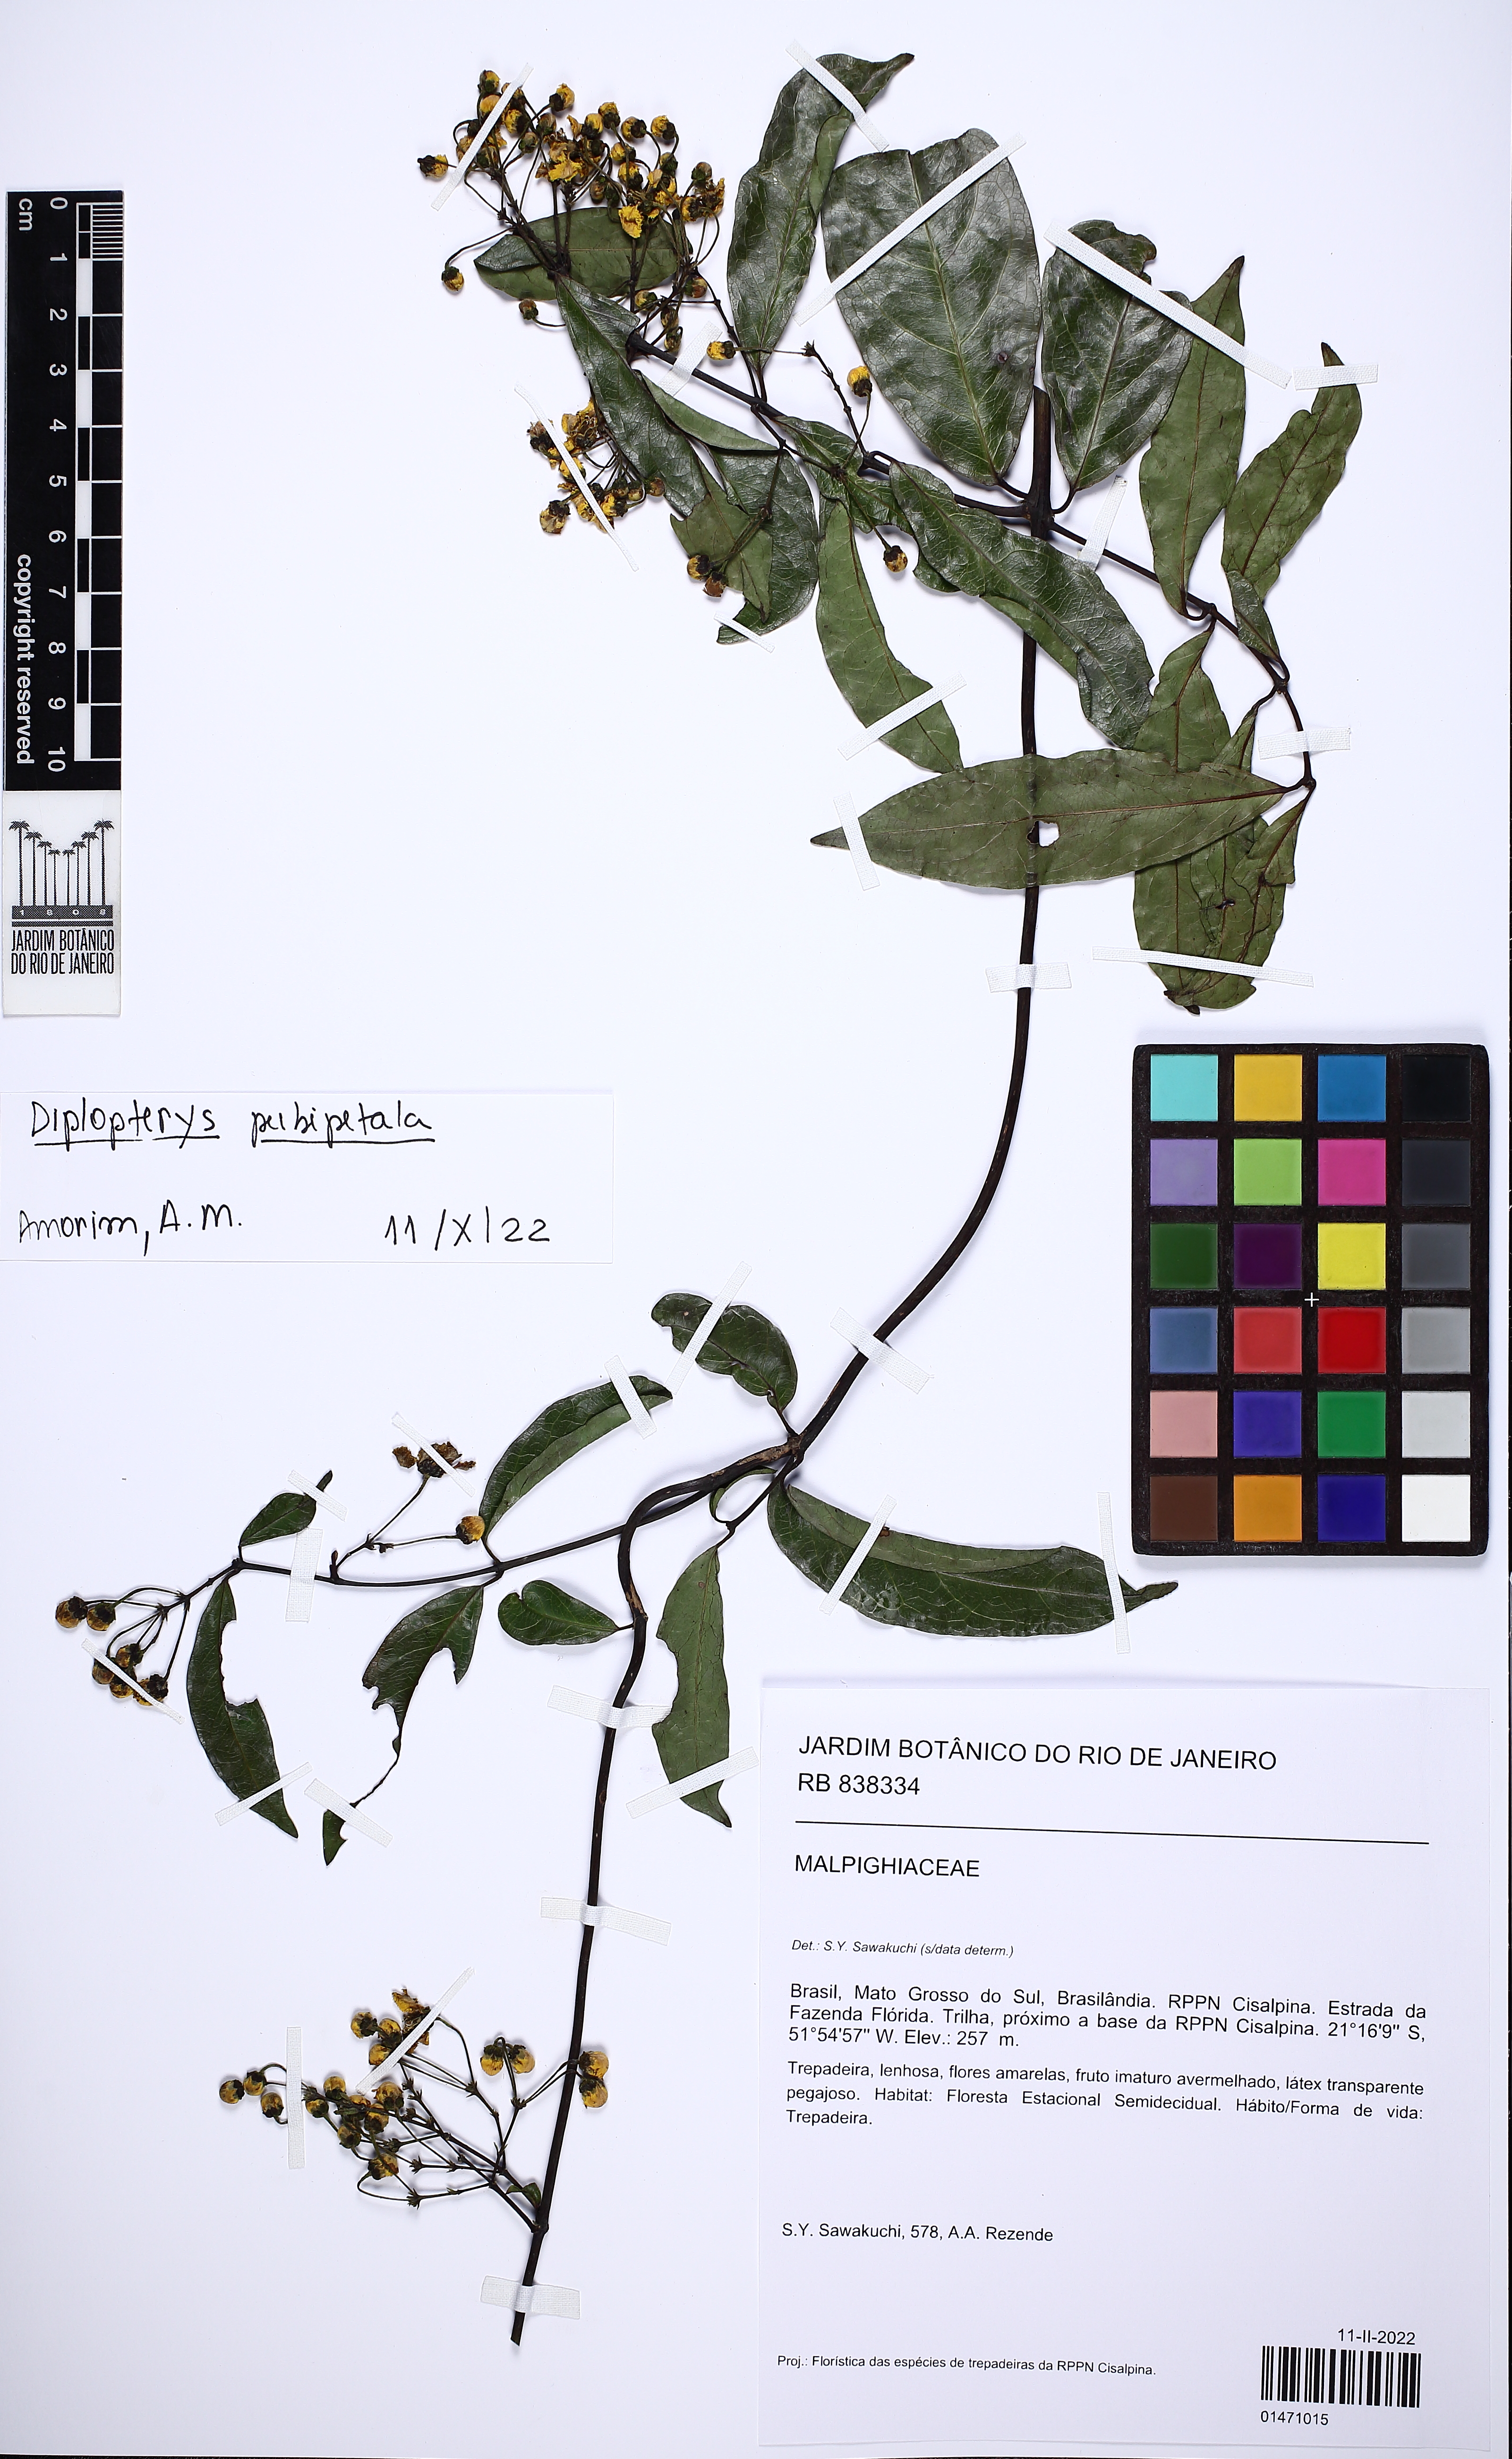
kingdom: Plantae
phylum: Tracheophyta
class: Magnoliopsida
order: Malpighiales
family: Malpighiaceae
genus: Diplopterys
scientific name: Diplopterys pubipetala
